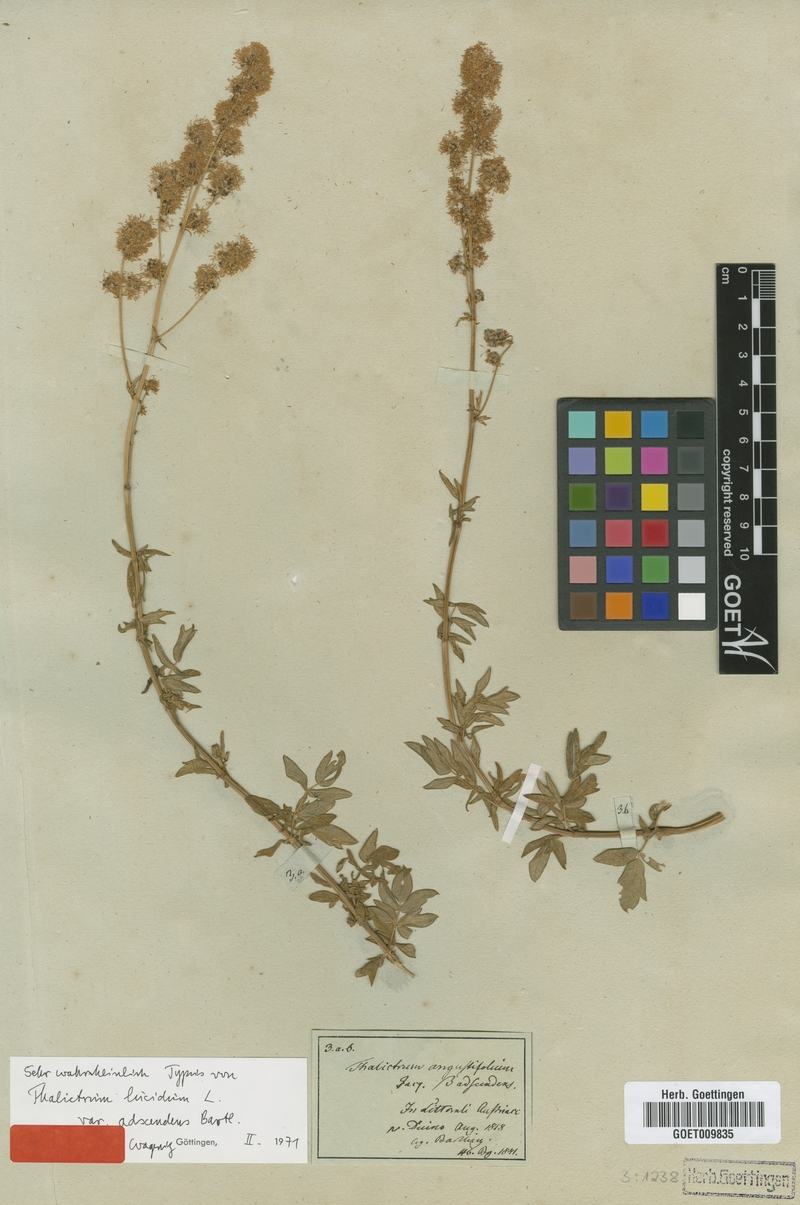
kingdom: Plantae
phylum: Tracheophyta
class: Magnoliopsida
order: Ranunculales
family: Ranunculaceae
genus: Thalictrum
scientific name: Thalictrum lucidum
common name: Shining meadow-rue
